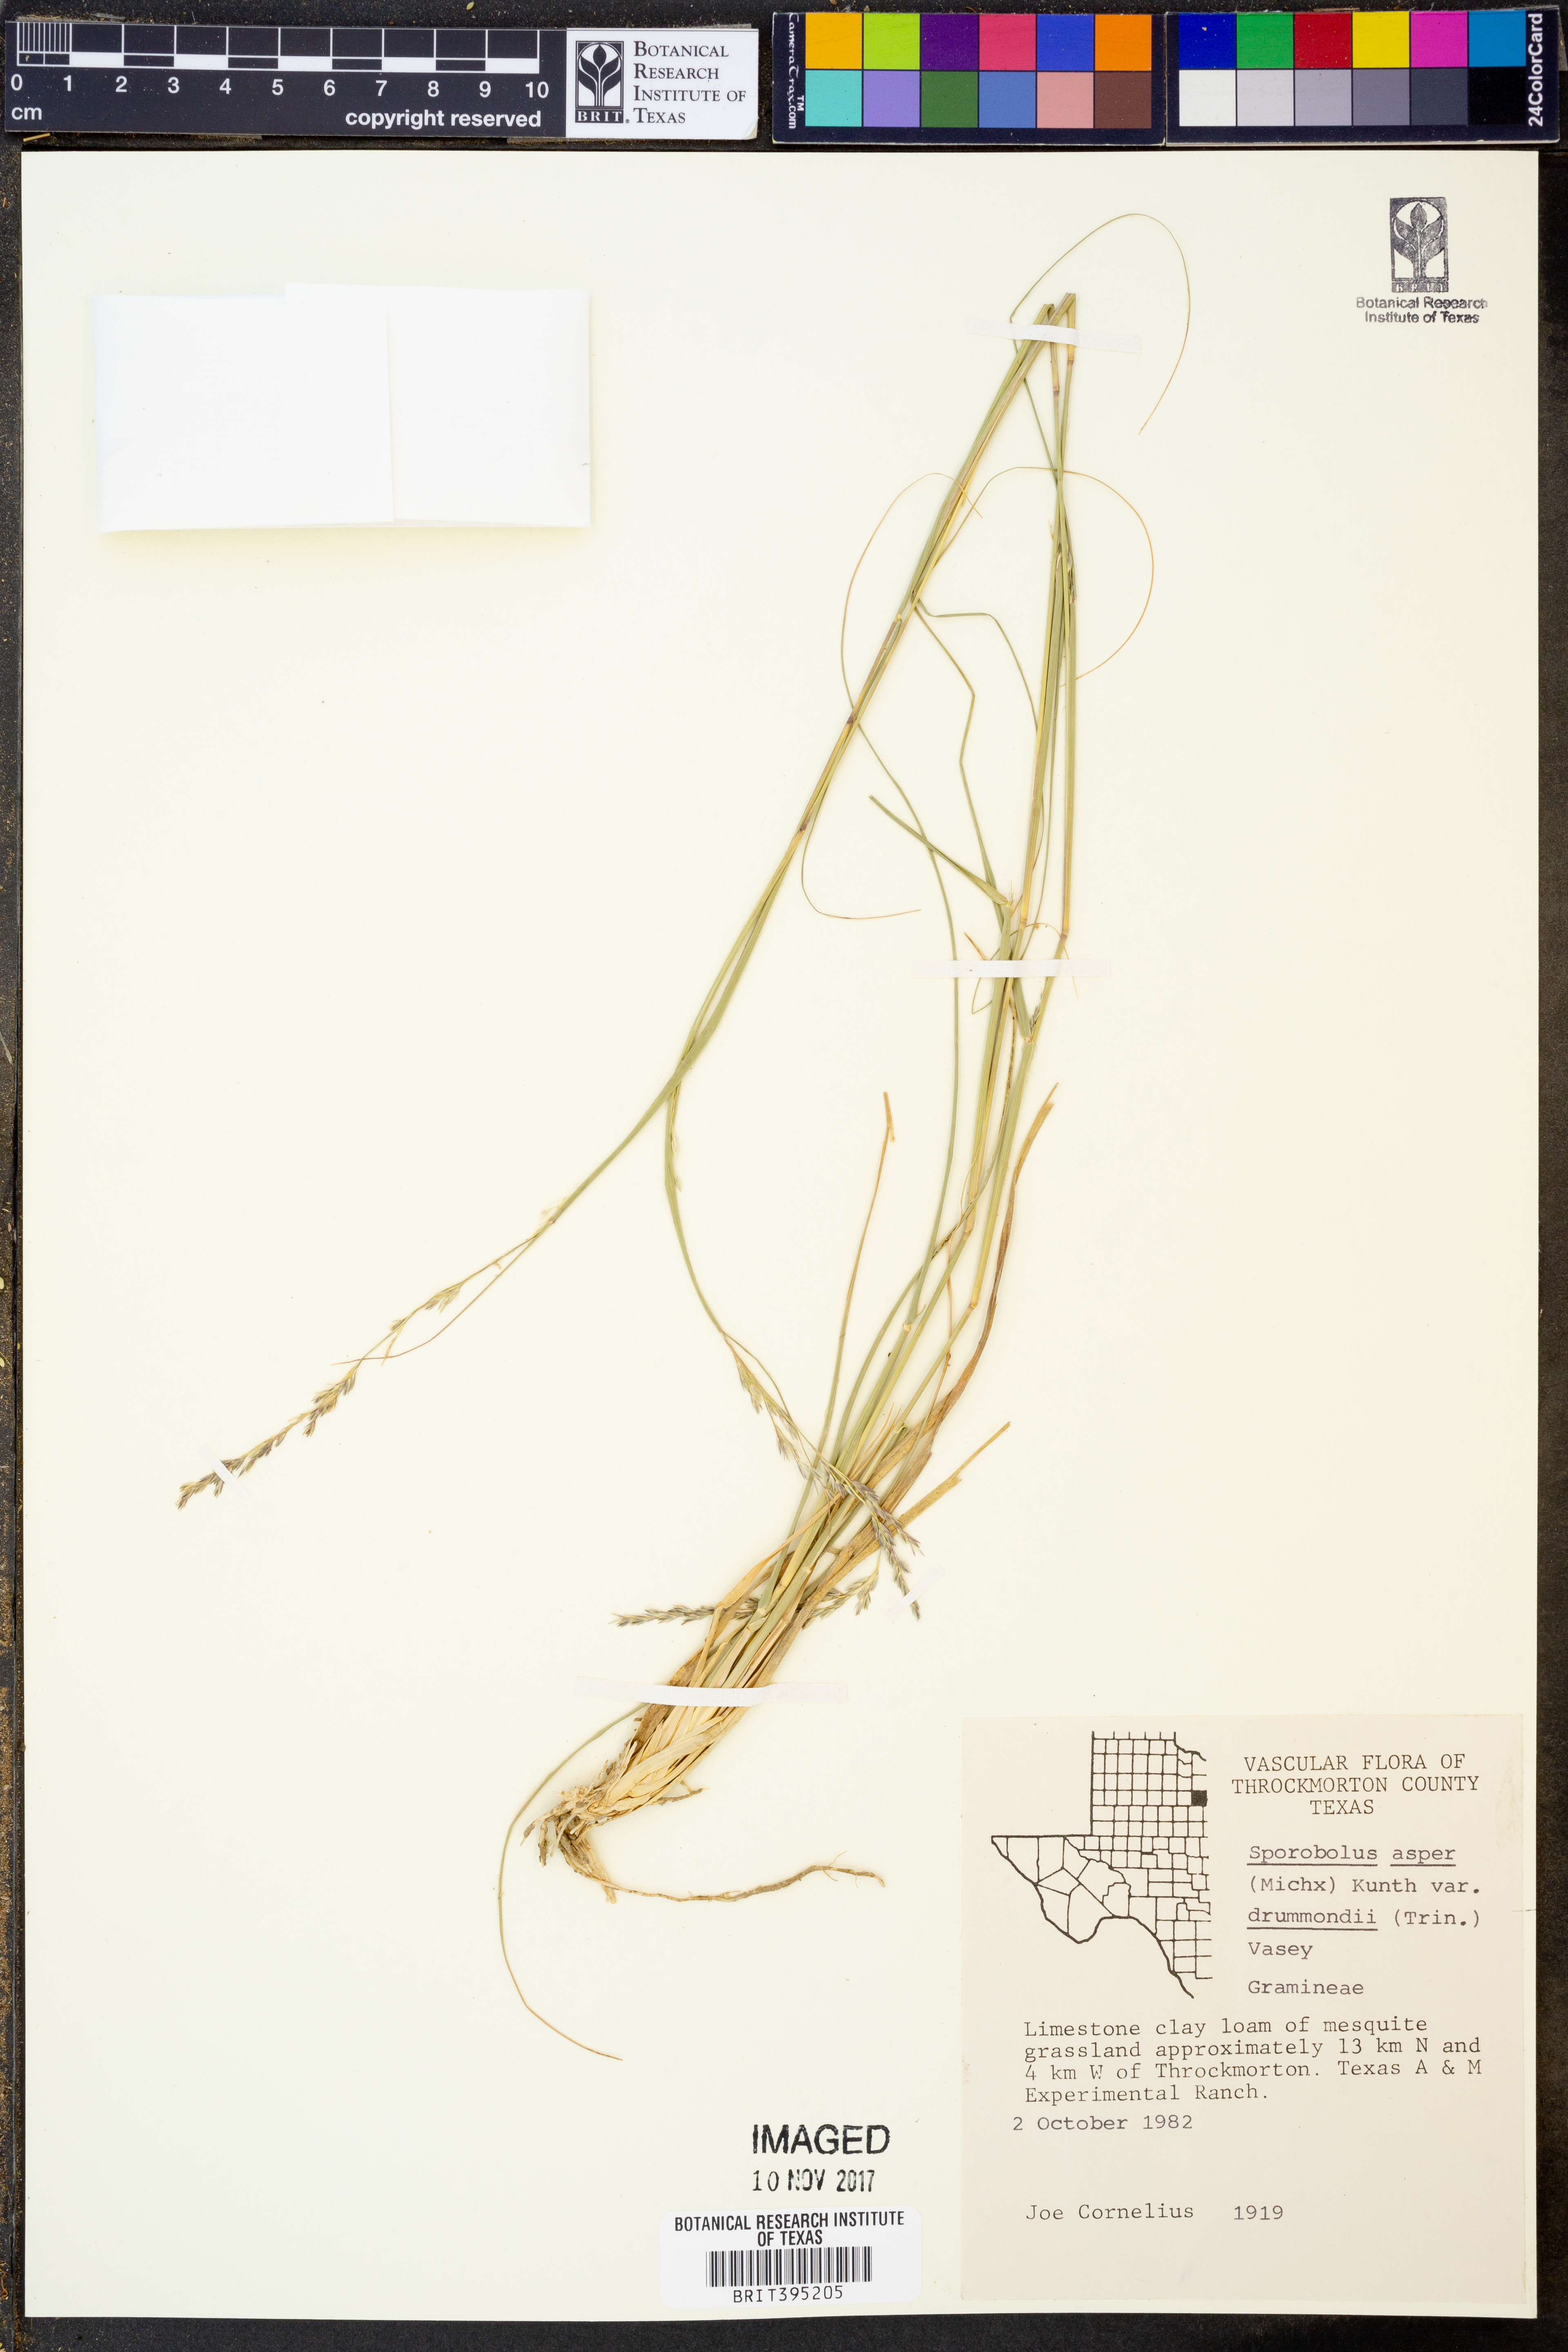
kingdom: Plantae
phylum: Tracheophyta
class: Liliopsida
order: Poales
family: Poaceae
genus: Sporobolus
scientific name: Sporobolus compositus
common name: Rough dropseed
